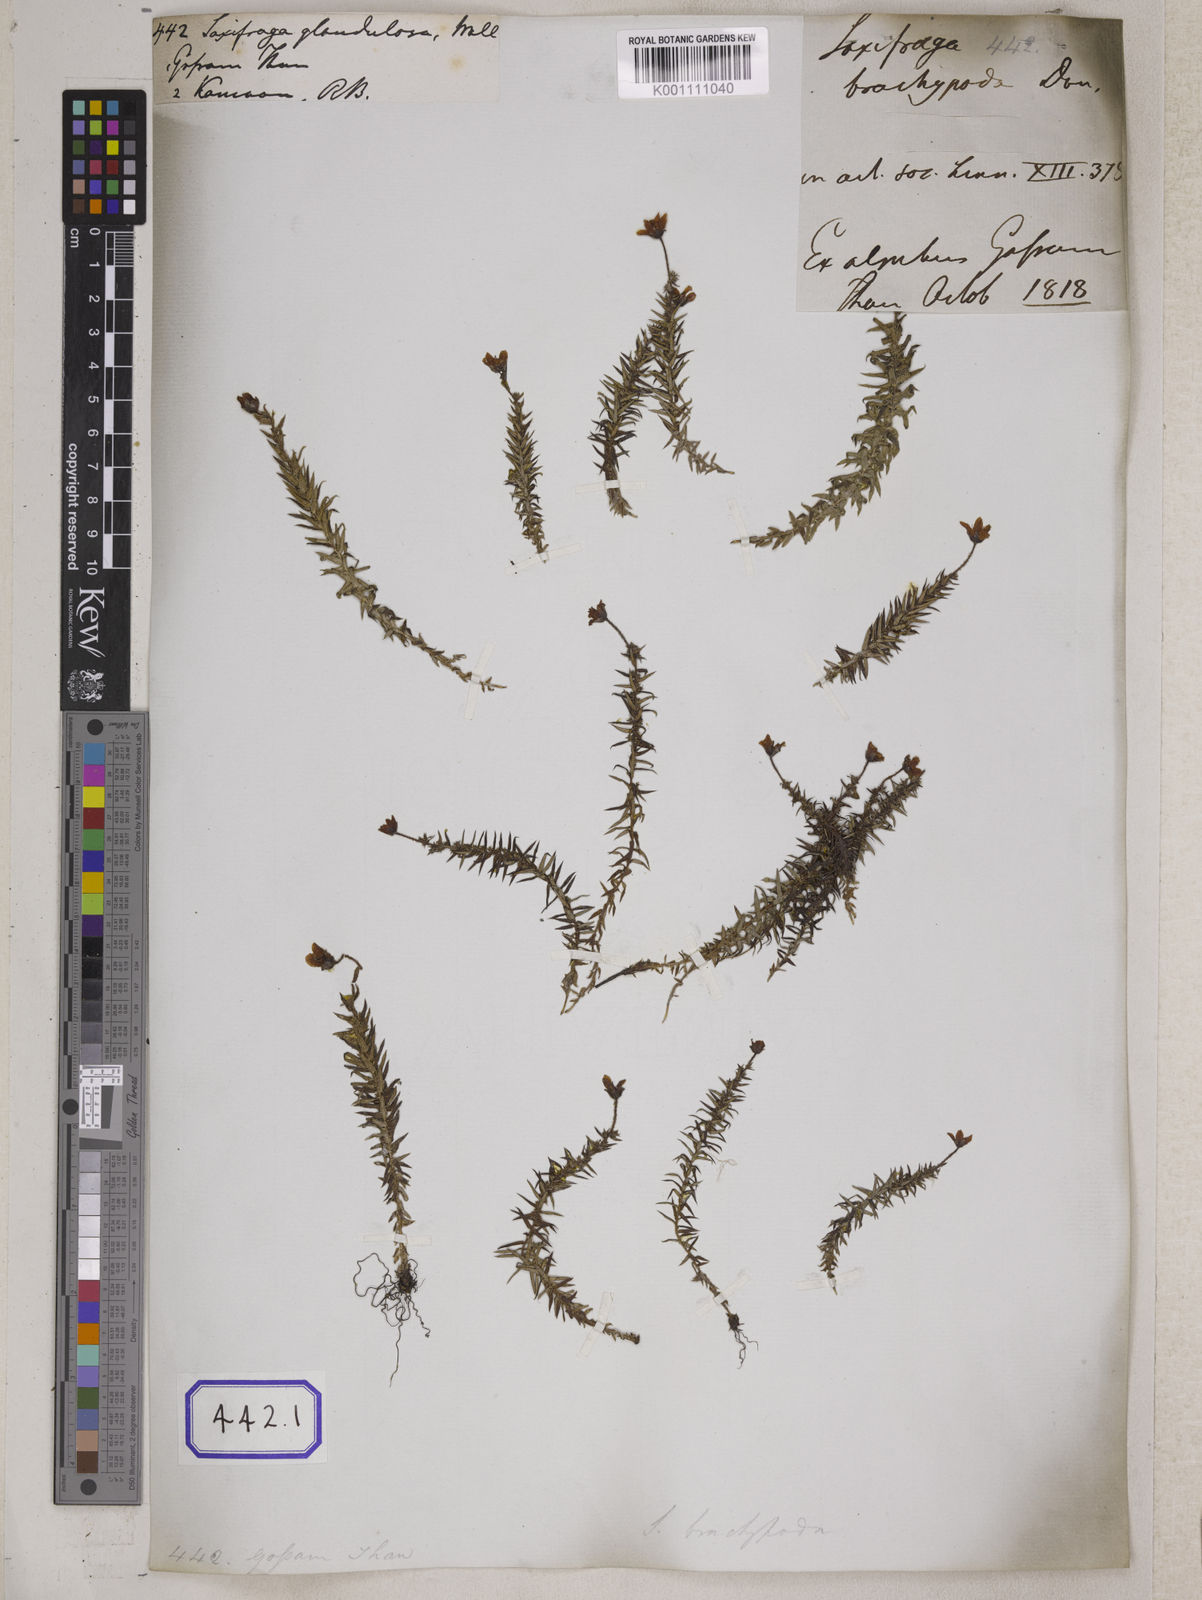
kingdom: Plantae
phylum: Tracheophyta
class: Magnoliopsida
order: Saxifragales
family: Saxifragaceae
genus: Saxifraga
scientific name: Saxifraga brachypoda
